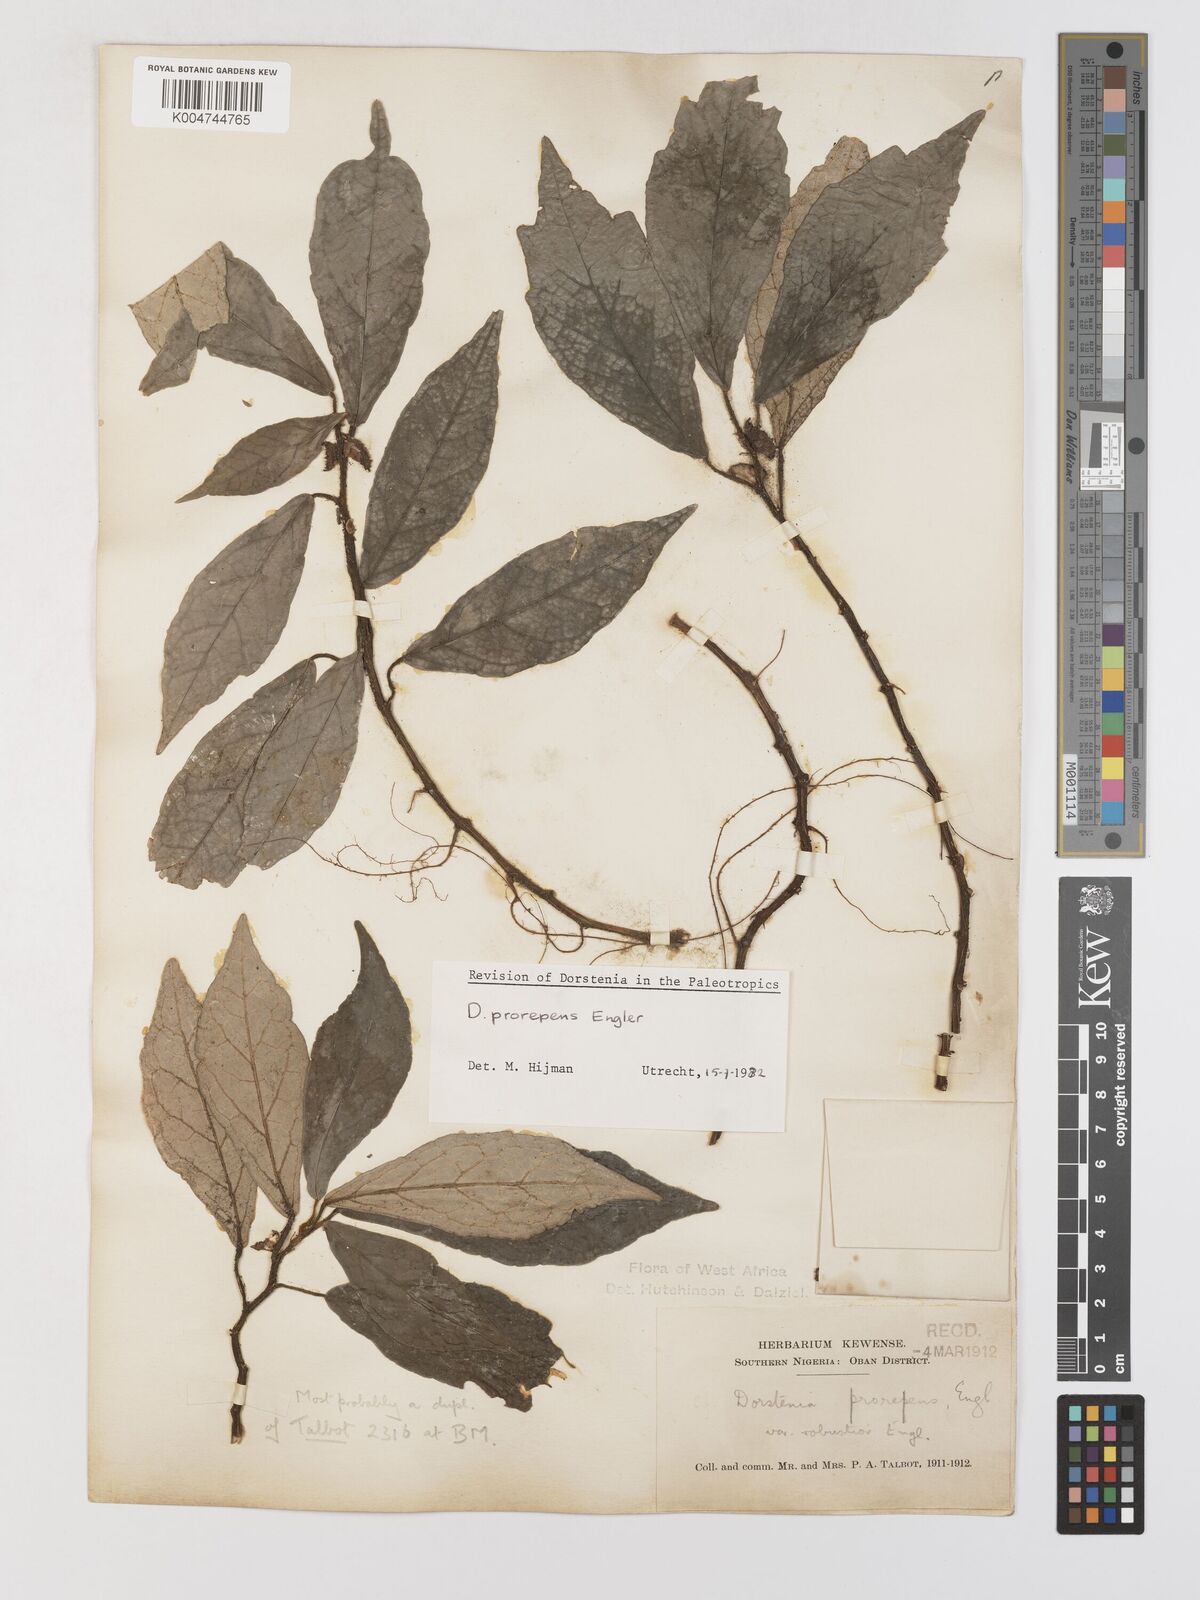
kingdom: Plantae
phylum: Tracheophyta
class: Magnoliopsida
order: Rosales
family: Moraceae
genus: Dorstenia
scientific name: Dorstenia prorepens
